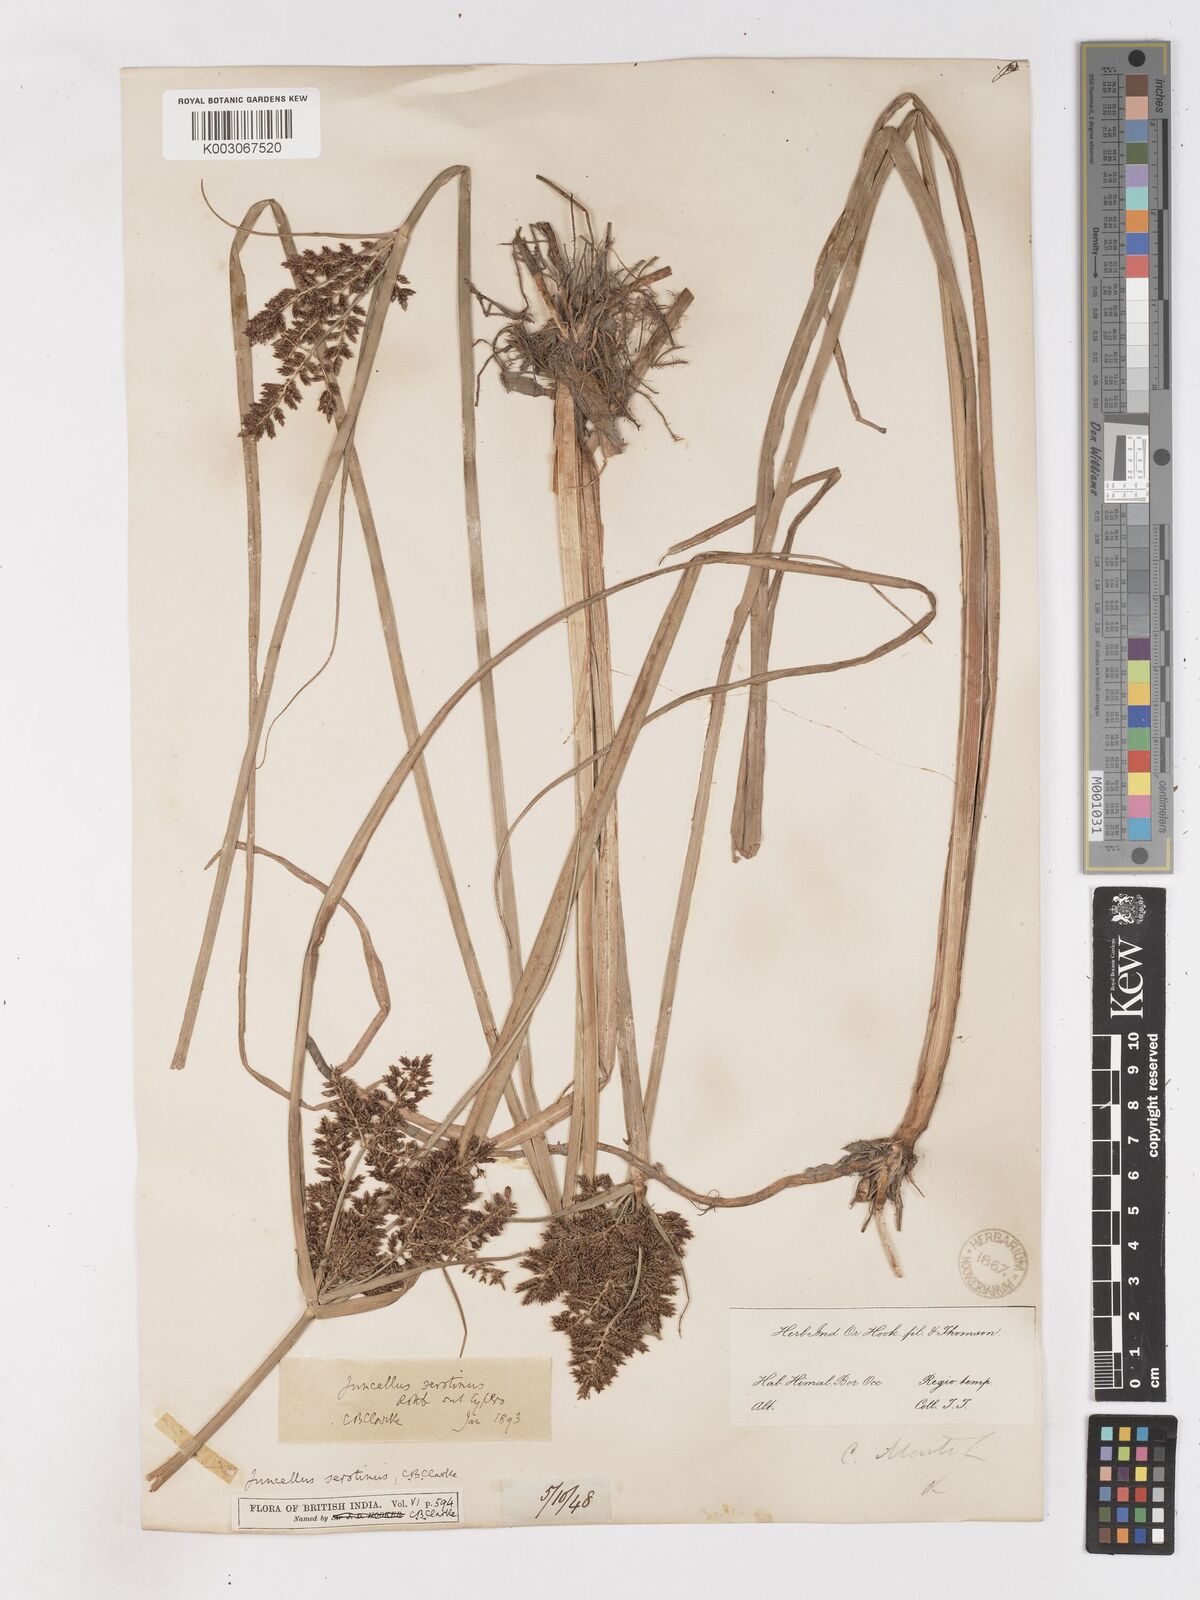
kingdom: Plantae
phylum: Tracheophyta
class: Liliopsida
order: Poales
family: Cyperaceae
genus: Cyperus
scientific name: Cyperus serotinus
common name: Tidalmarsh flatsedge
